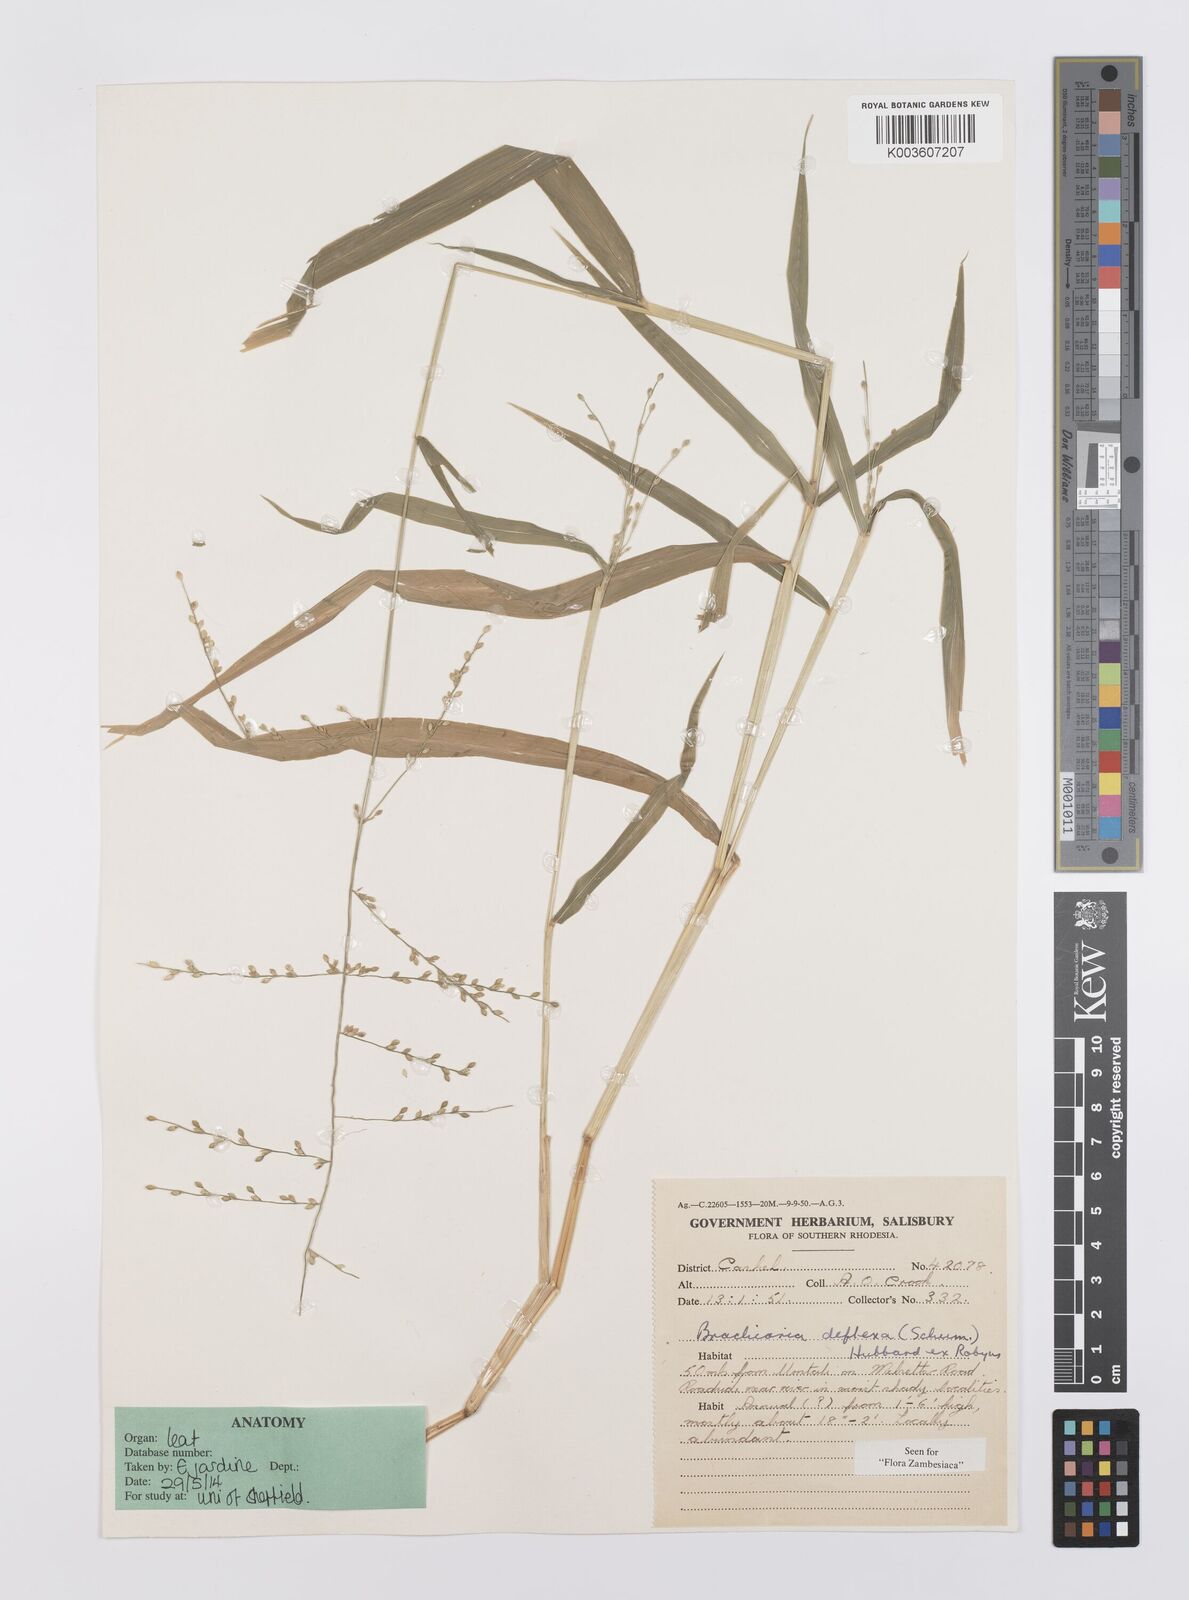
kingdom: Plantae
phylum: Tracheophyta
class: Liliopsida
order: Poales
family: Poaceae
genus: Urochloa
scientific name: Urochloa deflexa
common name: Guinea millet
